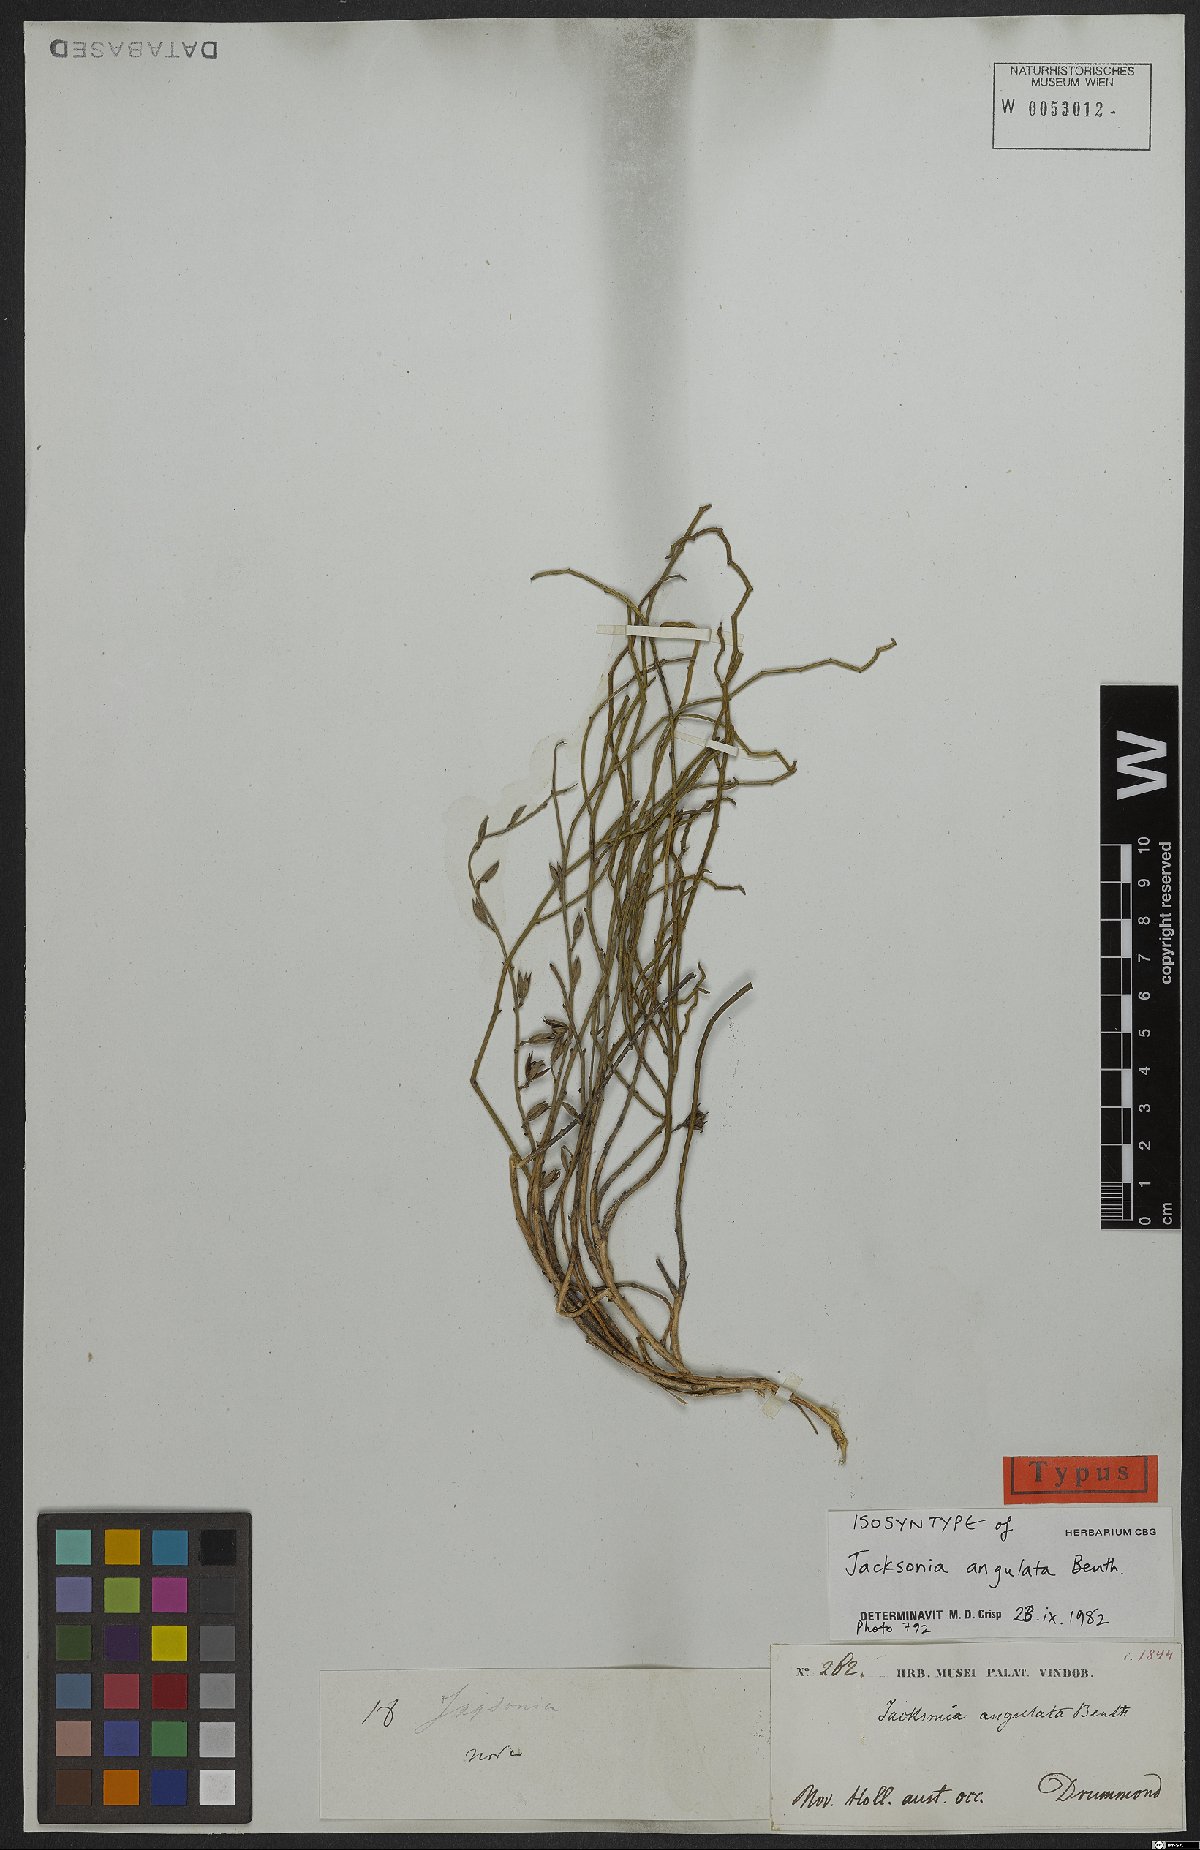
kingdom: Plantae
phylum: Tracheophyta
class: Magnoliopsida
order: Fabales
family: Fabaceae
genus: Jacksonia
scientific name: Jacksonia angulata
